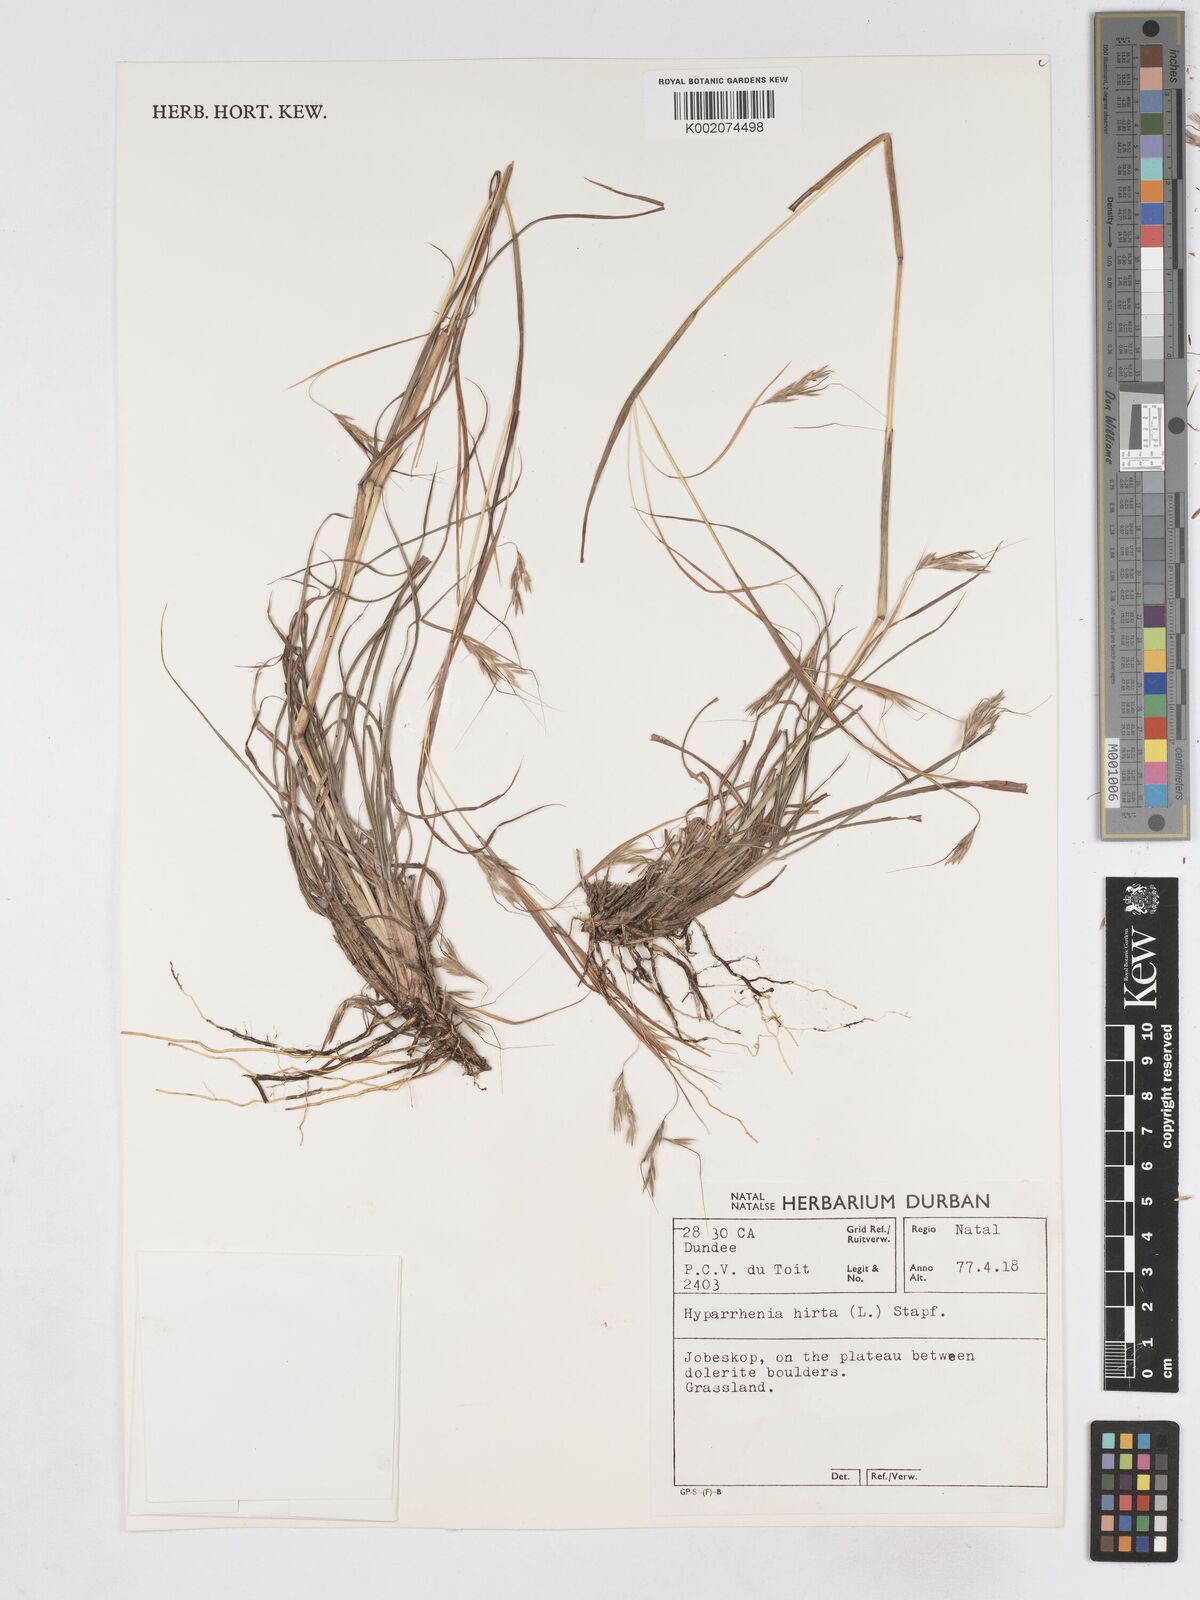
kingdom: Plantae
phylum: Tracheophyta
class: Liliopsida
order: Poales
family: Poaceae
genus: Hyparrhenia
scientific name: Hyparrhenia hirta
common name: Thatching grass
